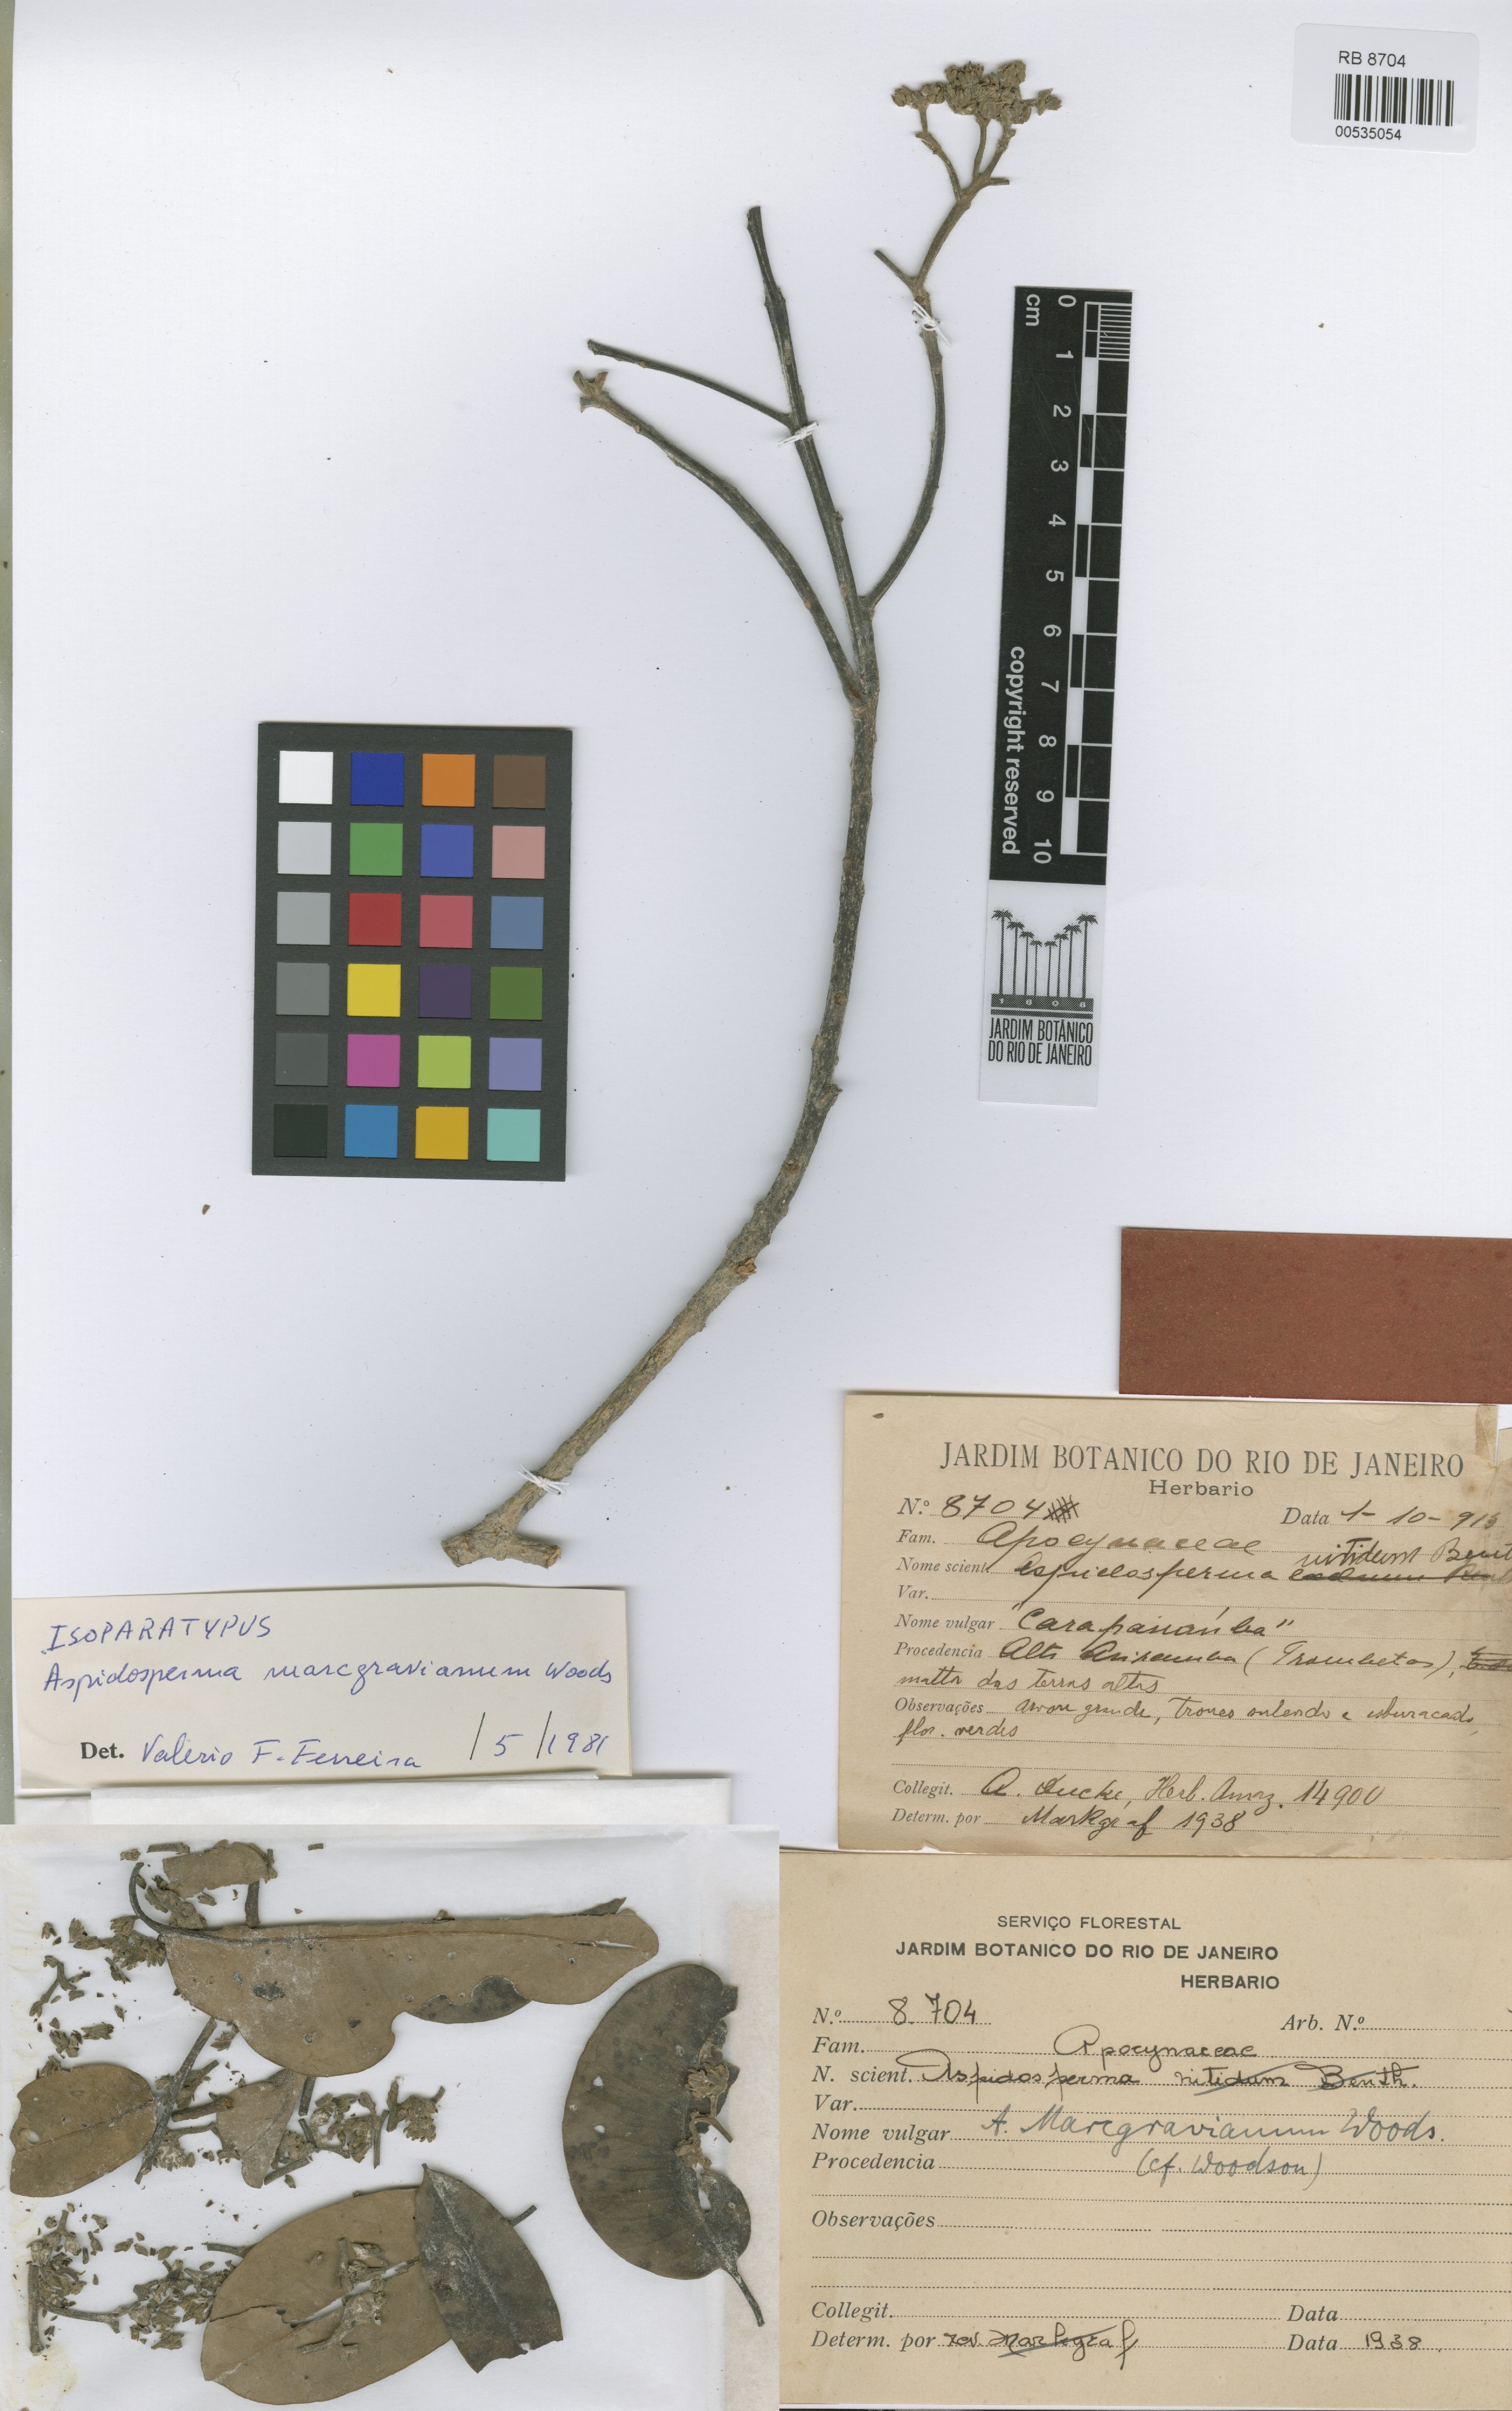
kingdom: Plantae
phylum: Tracheophyta
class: Magnoliopsida
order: Gentianales
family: Apocynaceae
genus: Aspidosperma
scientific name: Aspidosperma excelsum
